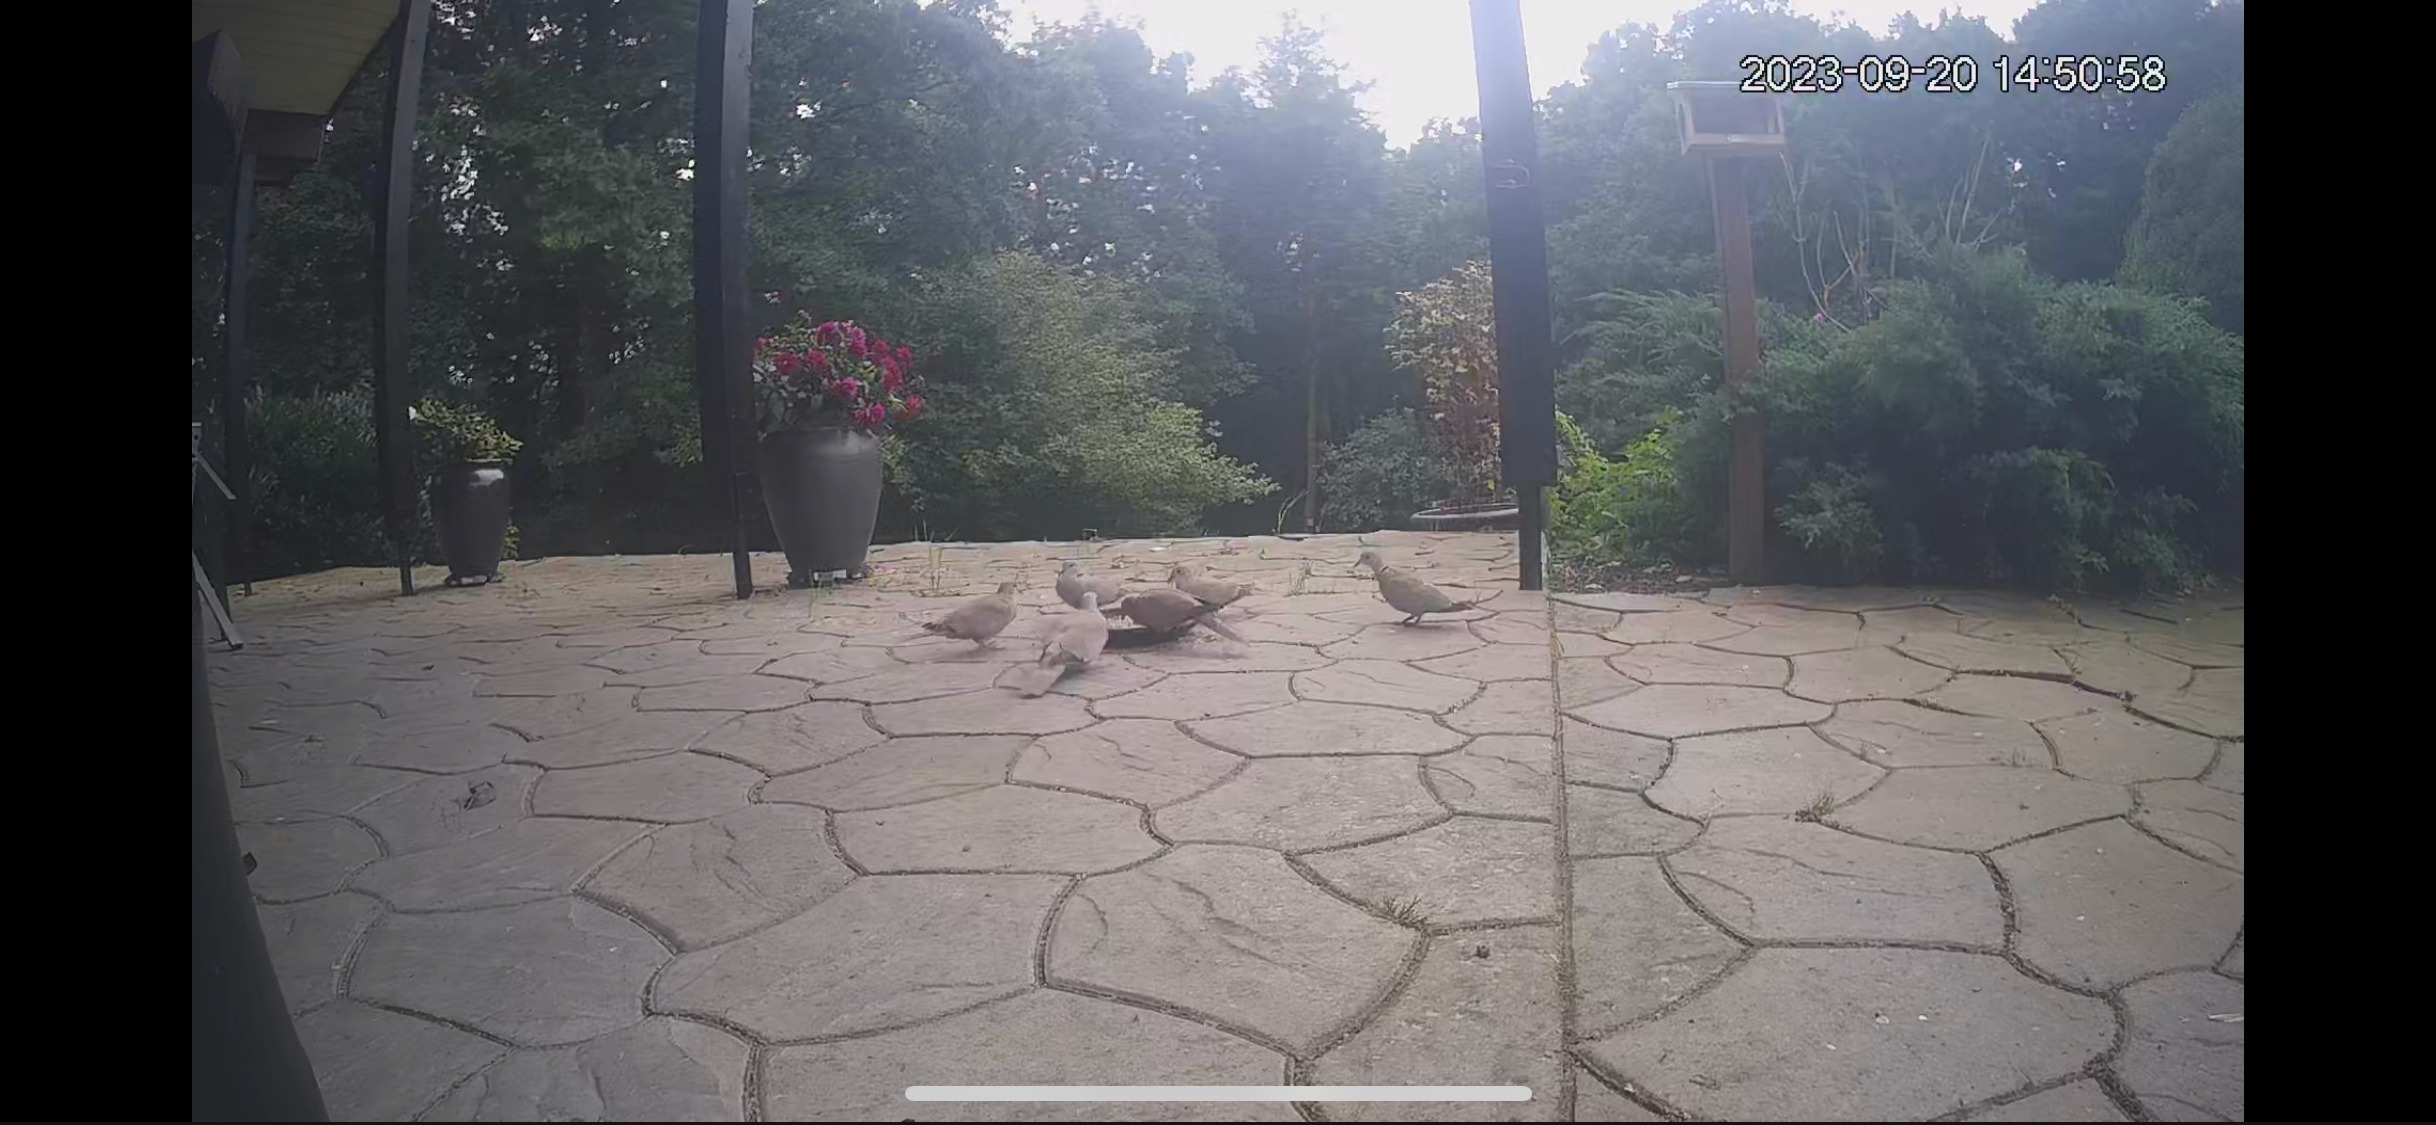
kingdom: Animalia
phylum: Chordata
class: Aves
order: Columbiformes
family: Columbidae
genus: Streptopelia
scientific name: Streptopelia decaocto
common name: Tyrkerdue
